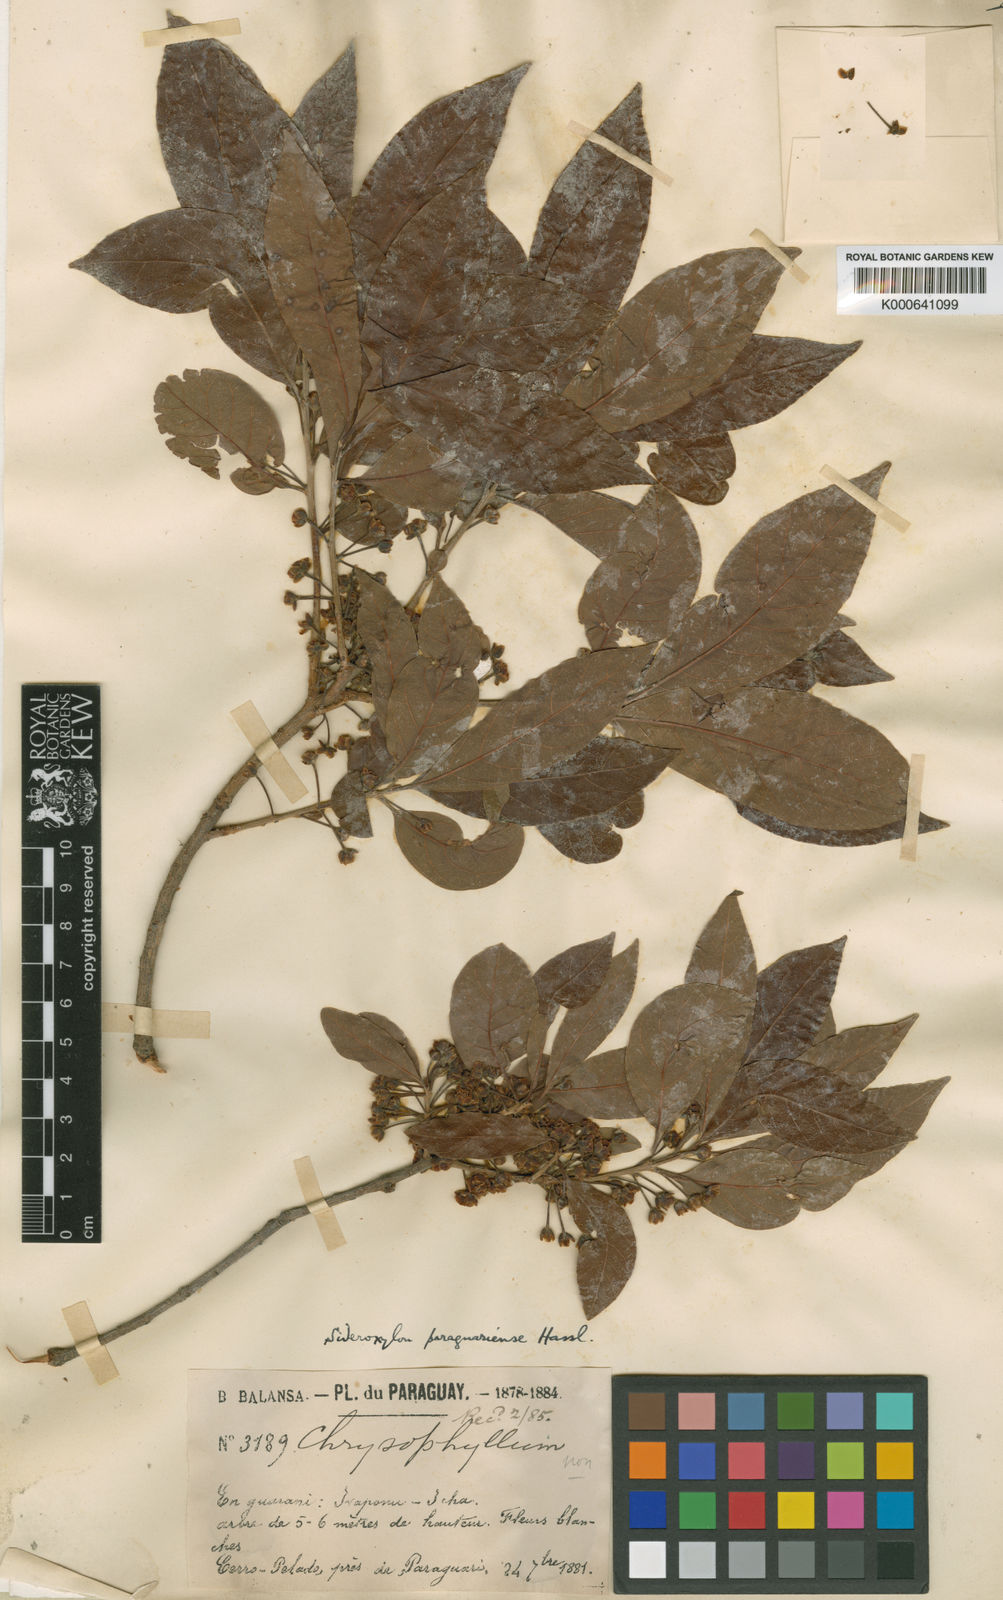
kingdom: Plantae
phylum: Tracheophyta
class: Magnoliopsida
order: Ericales
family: Sapotaceae
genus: Pouteria
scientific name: Pouteria gardneri
